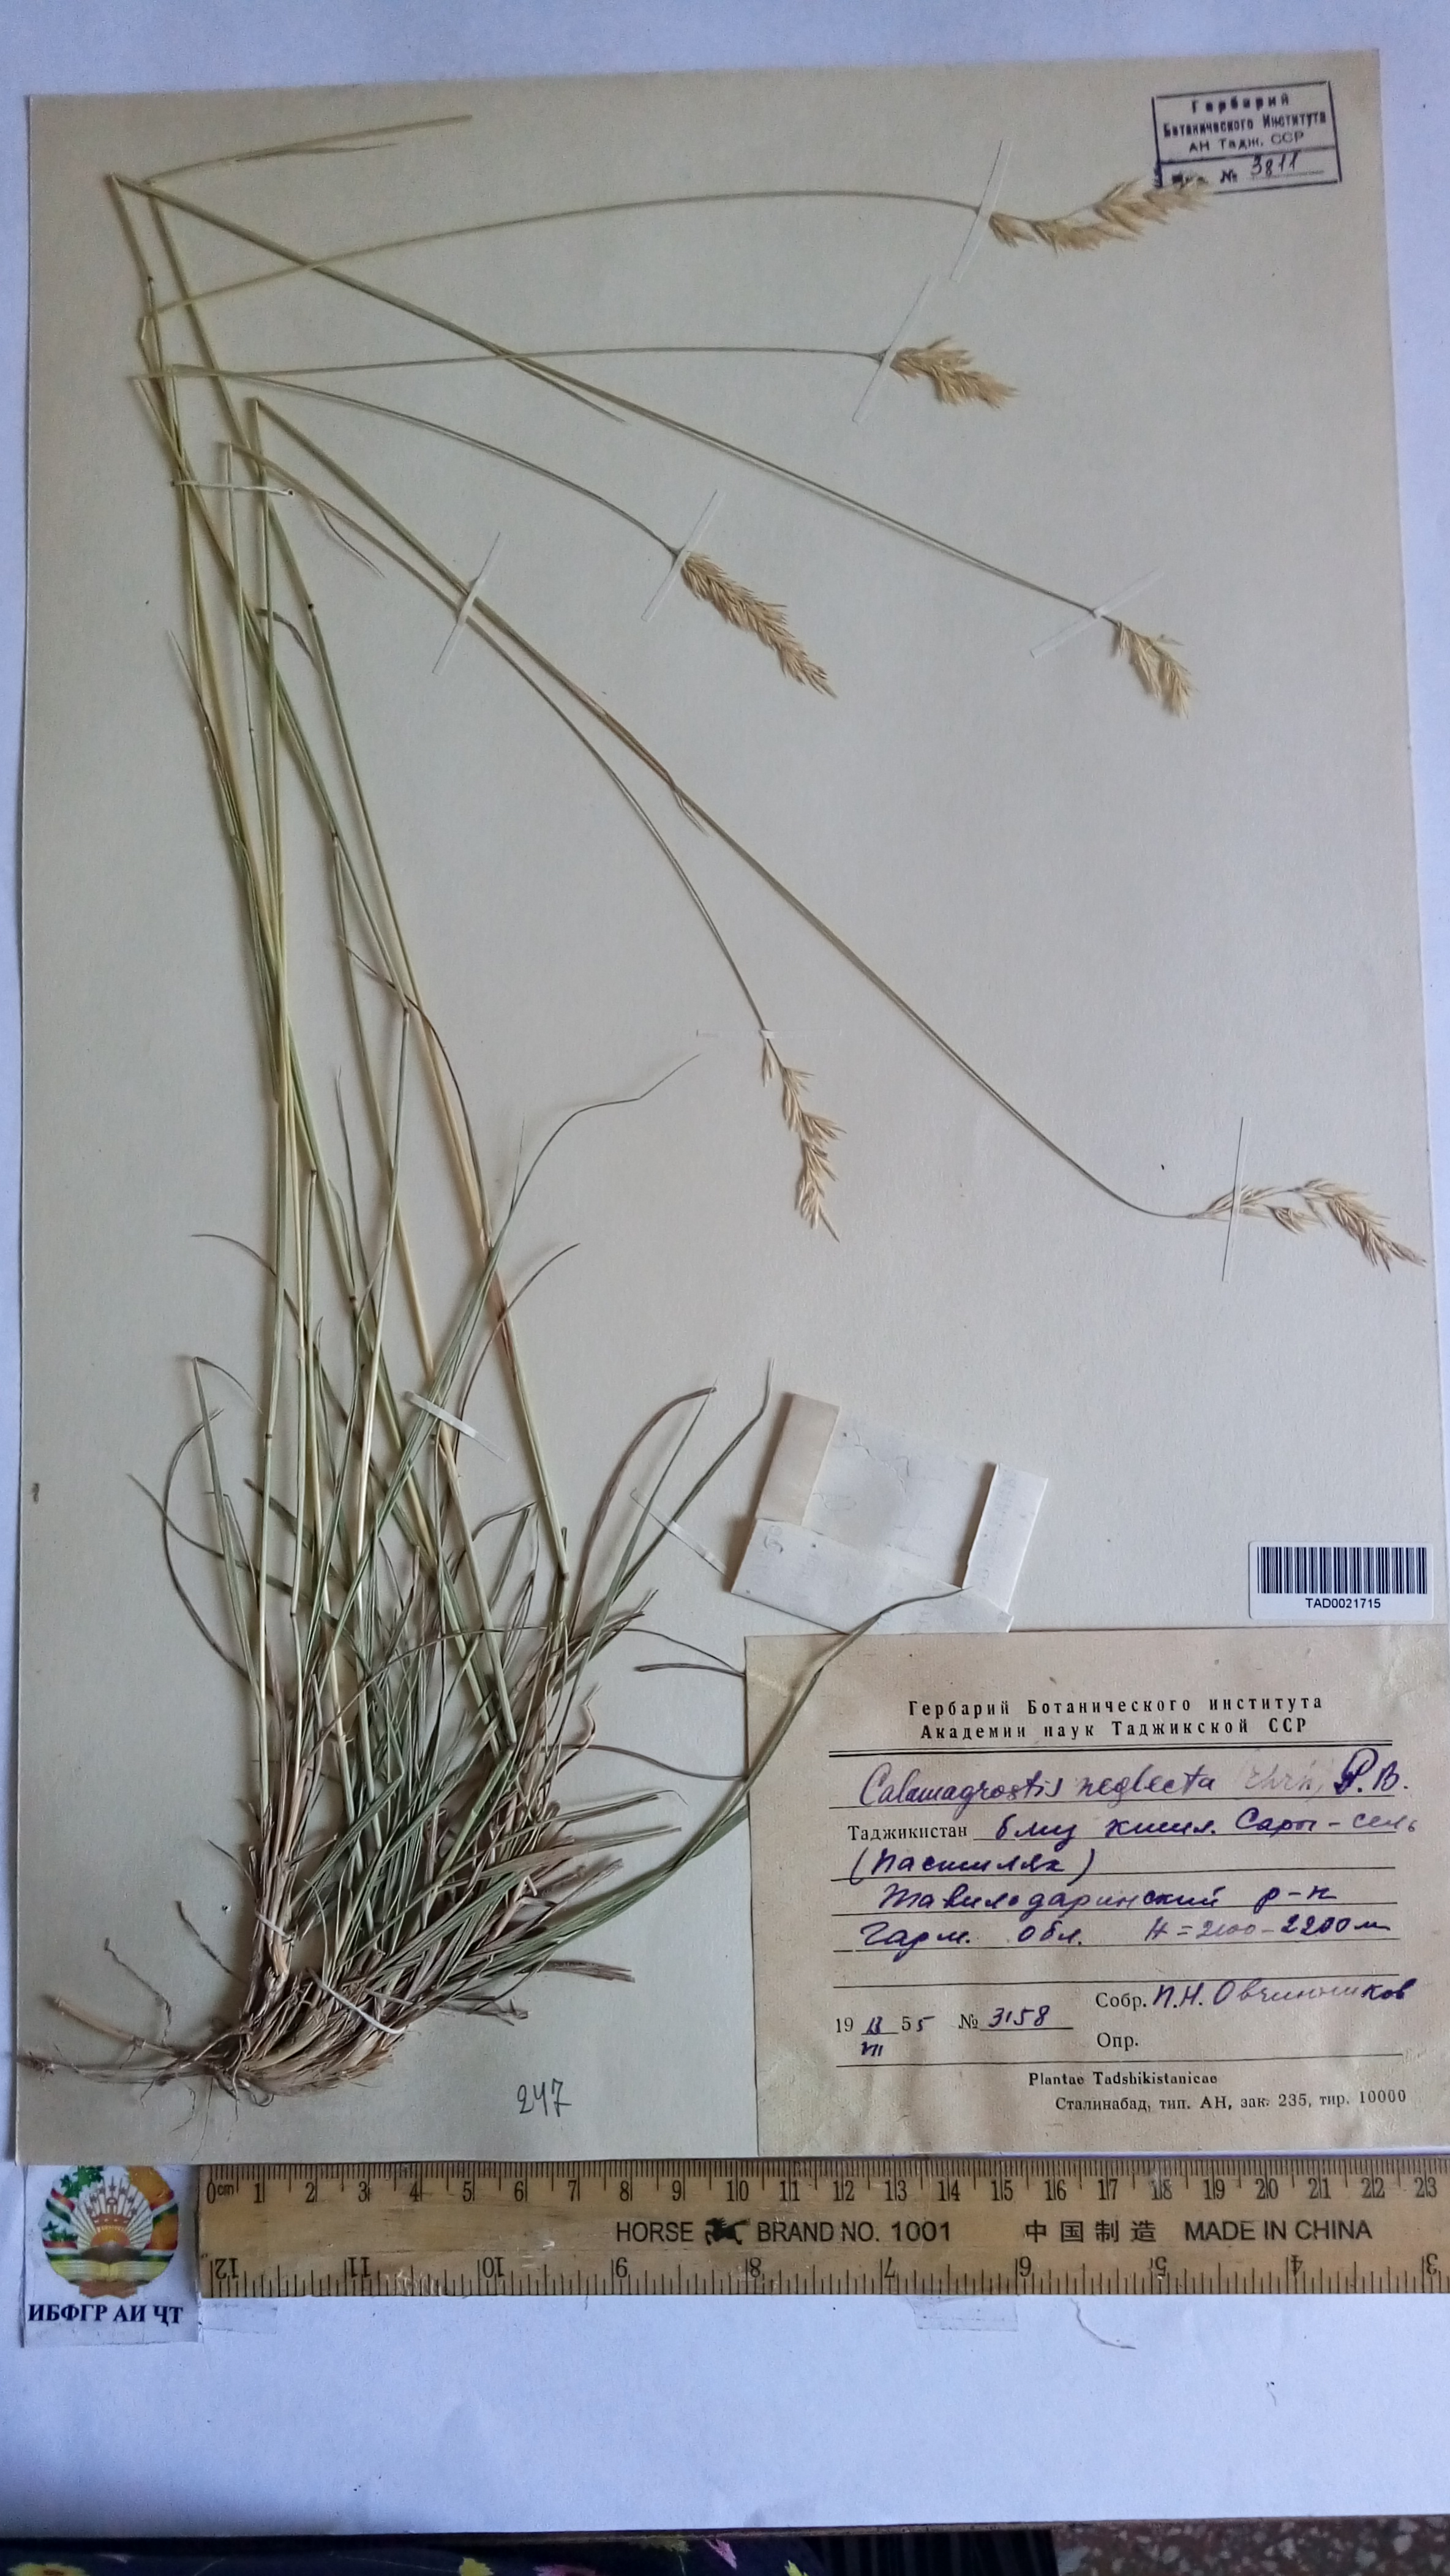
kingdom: Plantae
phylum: Tracheophyta
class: Liliopsida
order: Poales
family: Poaceae
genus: Achnatherum
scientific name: Achnatherum calamagrostis
